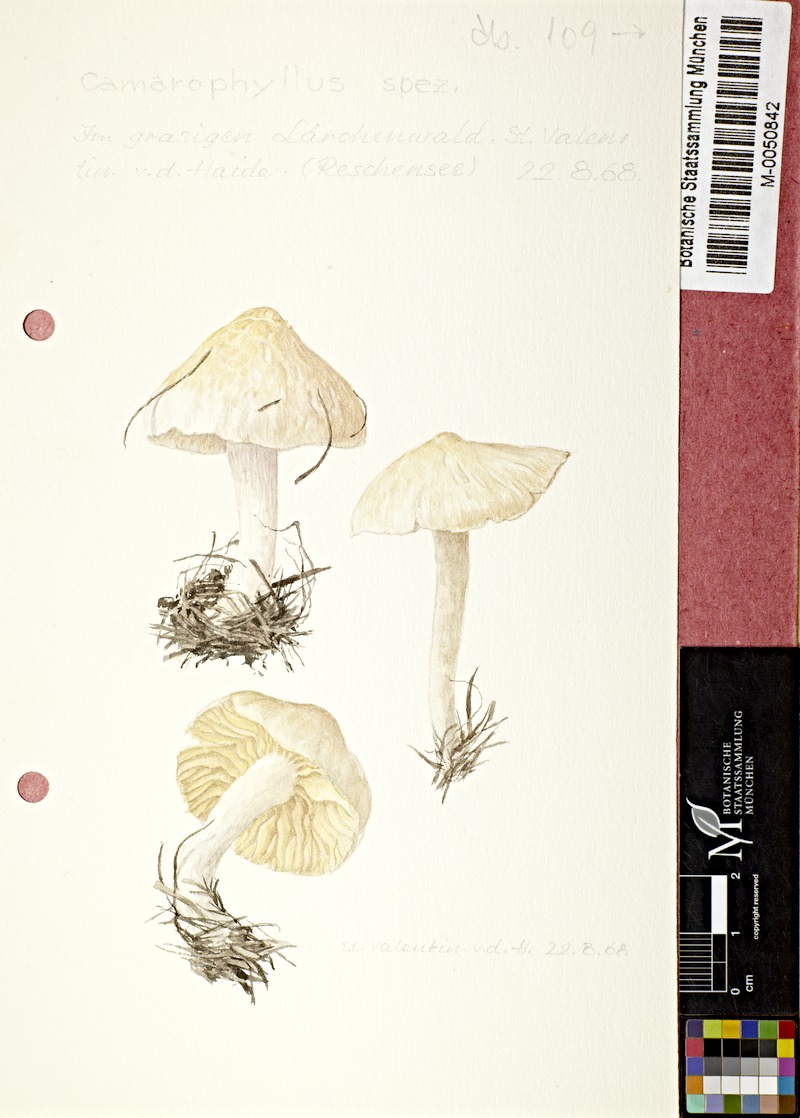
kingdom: Fungi
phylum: Basidiomycota
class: Agaricomycetes
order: Agaricales
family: Hygrophoraceae
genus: Camarophyllus
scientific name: Camarophyllus
